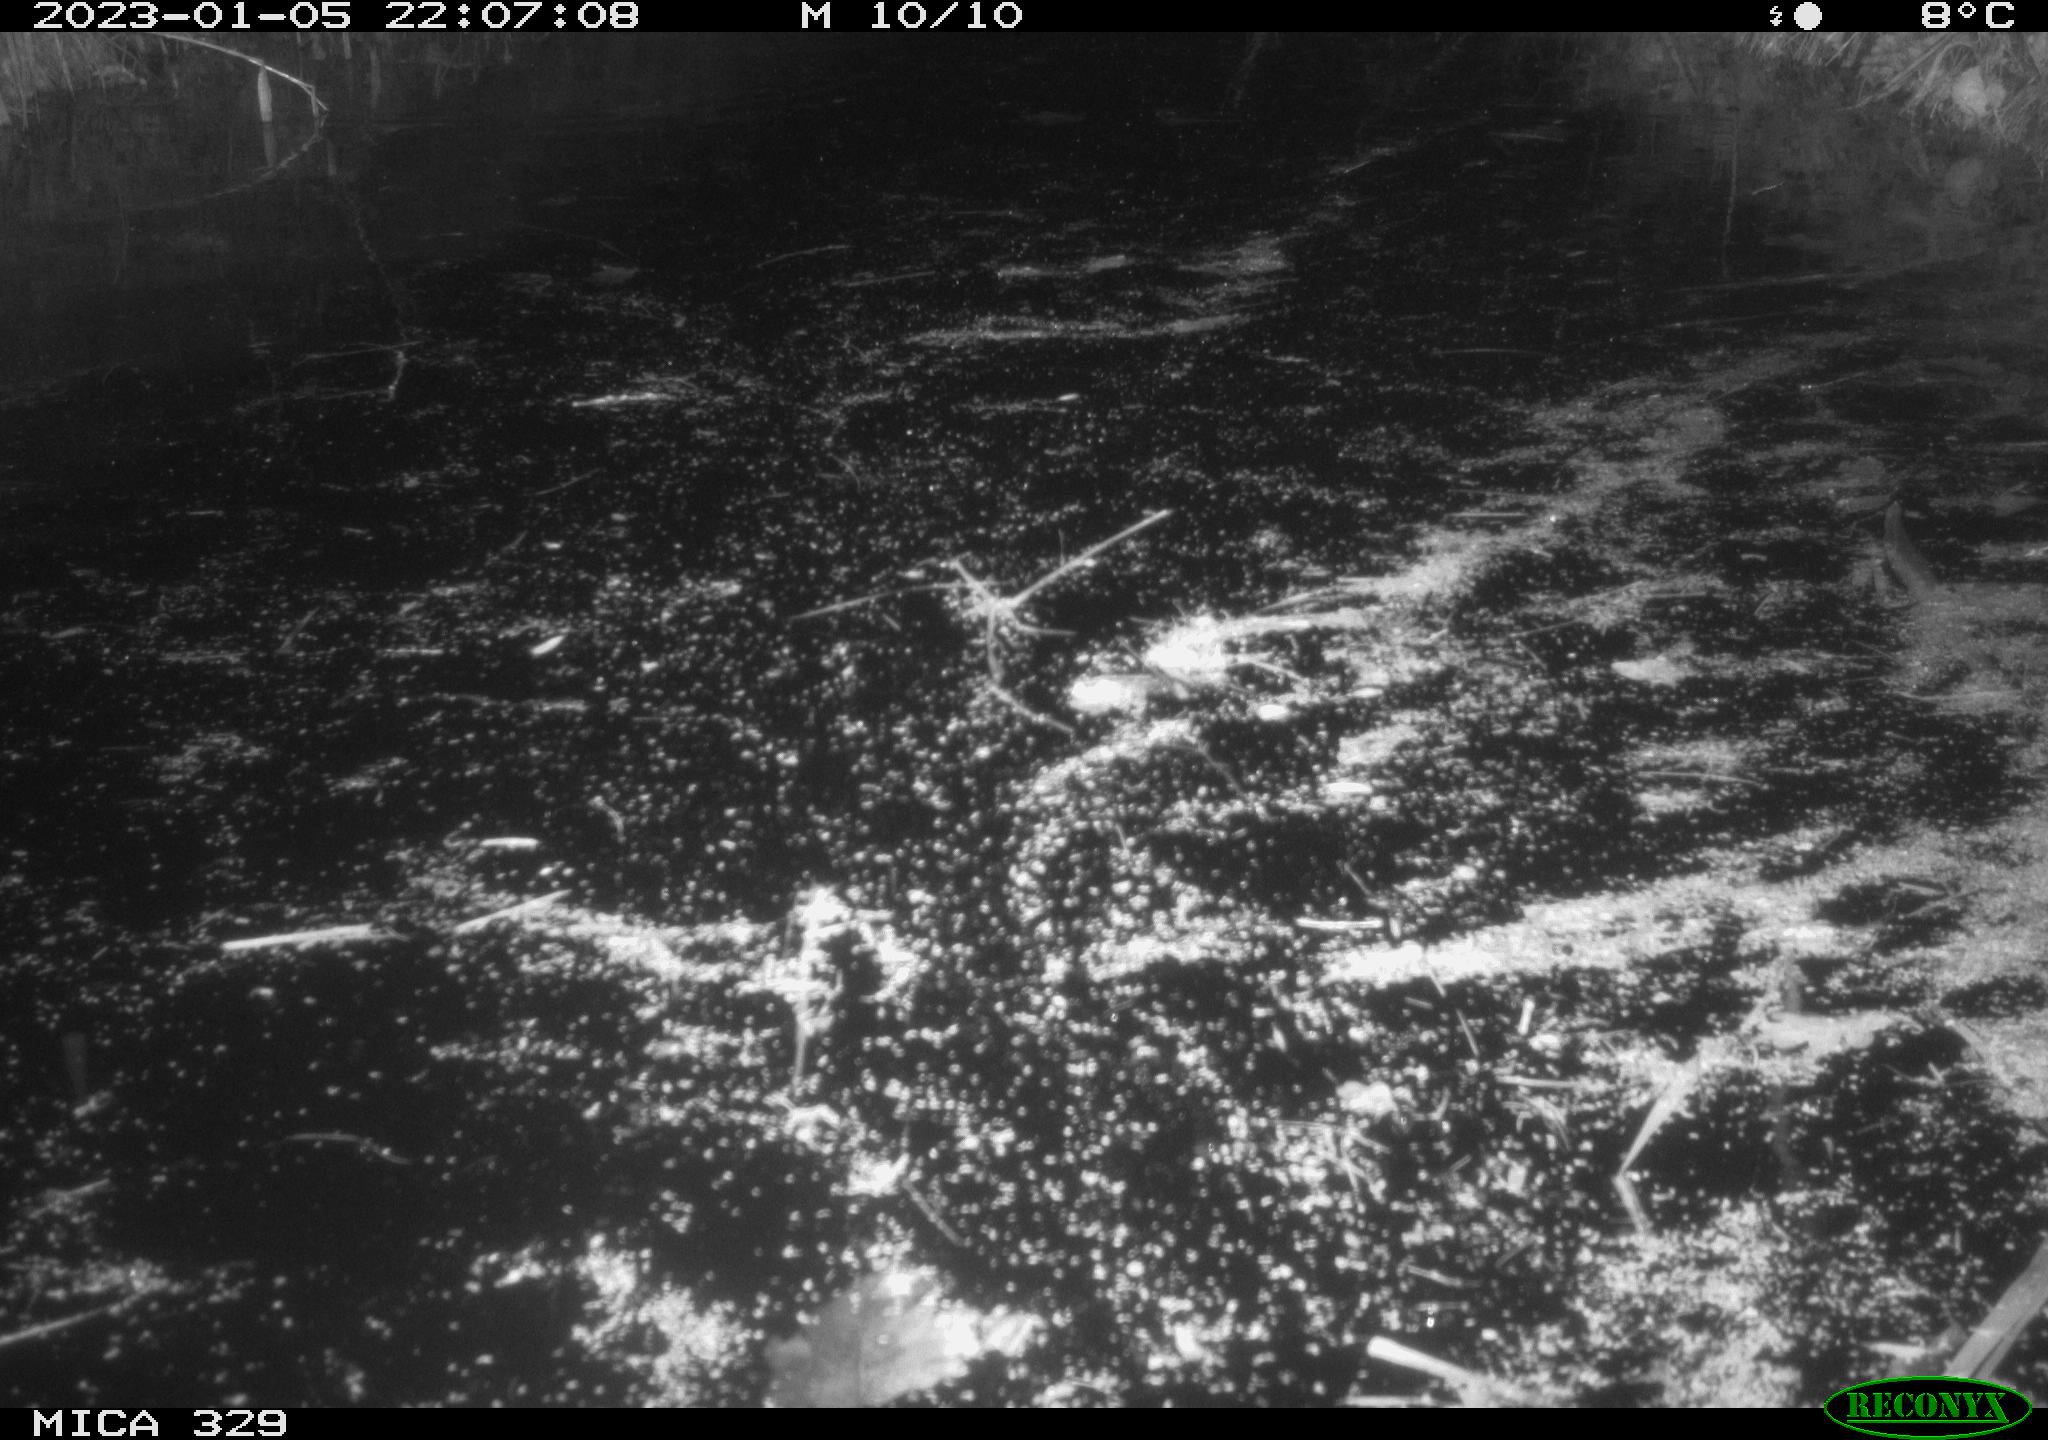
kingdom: Animalia
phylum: Chordata
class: Mammalia
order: Rodentia
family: Cricetidae
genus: Ondatra
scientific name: Ondatra zibethicus
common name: Muskrat
